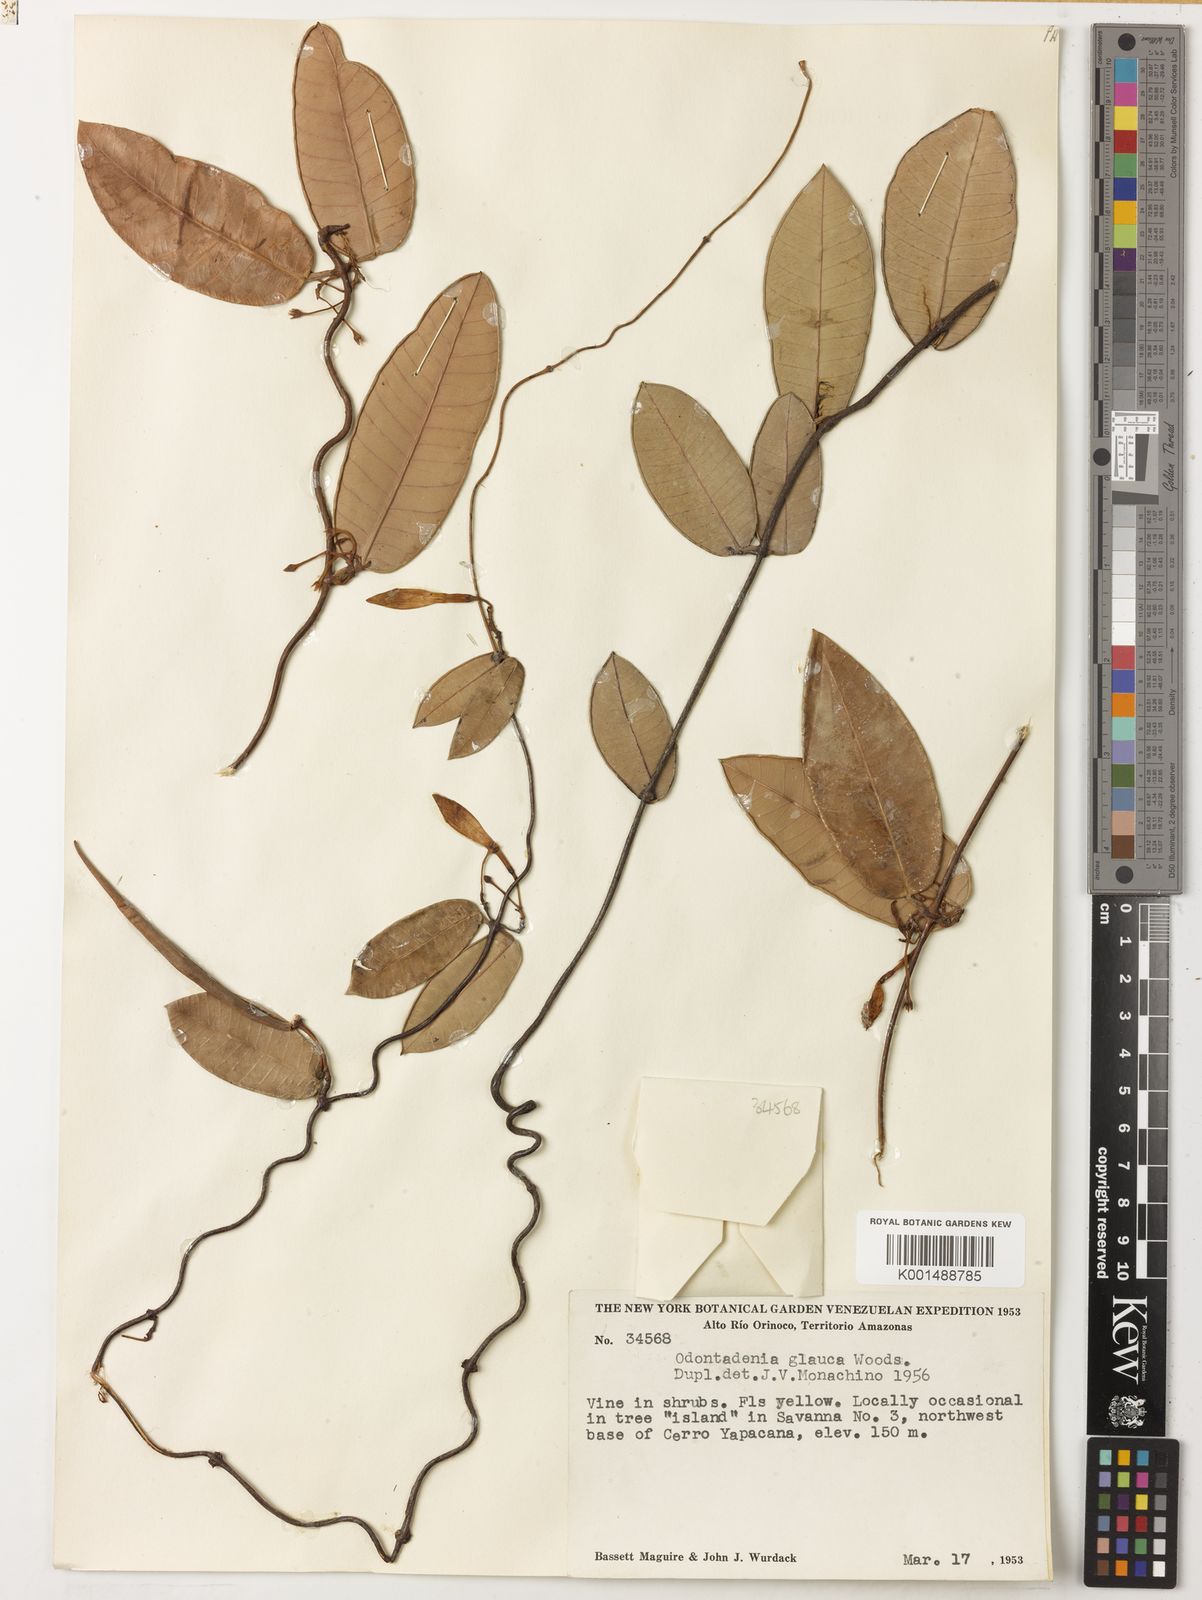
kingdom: Plantae
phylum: Tracheophyta
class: Magnoliopsida
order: Gentianales
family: Apocynaceae
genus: Odontadenia
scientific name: Odontadenia glauca
